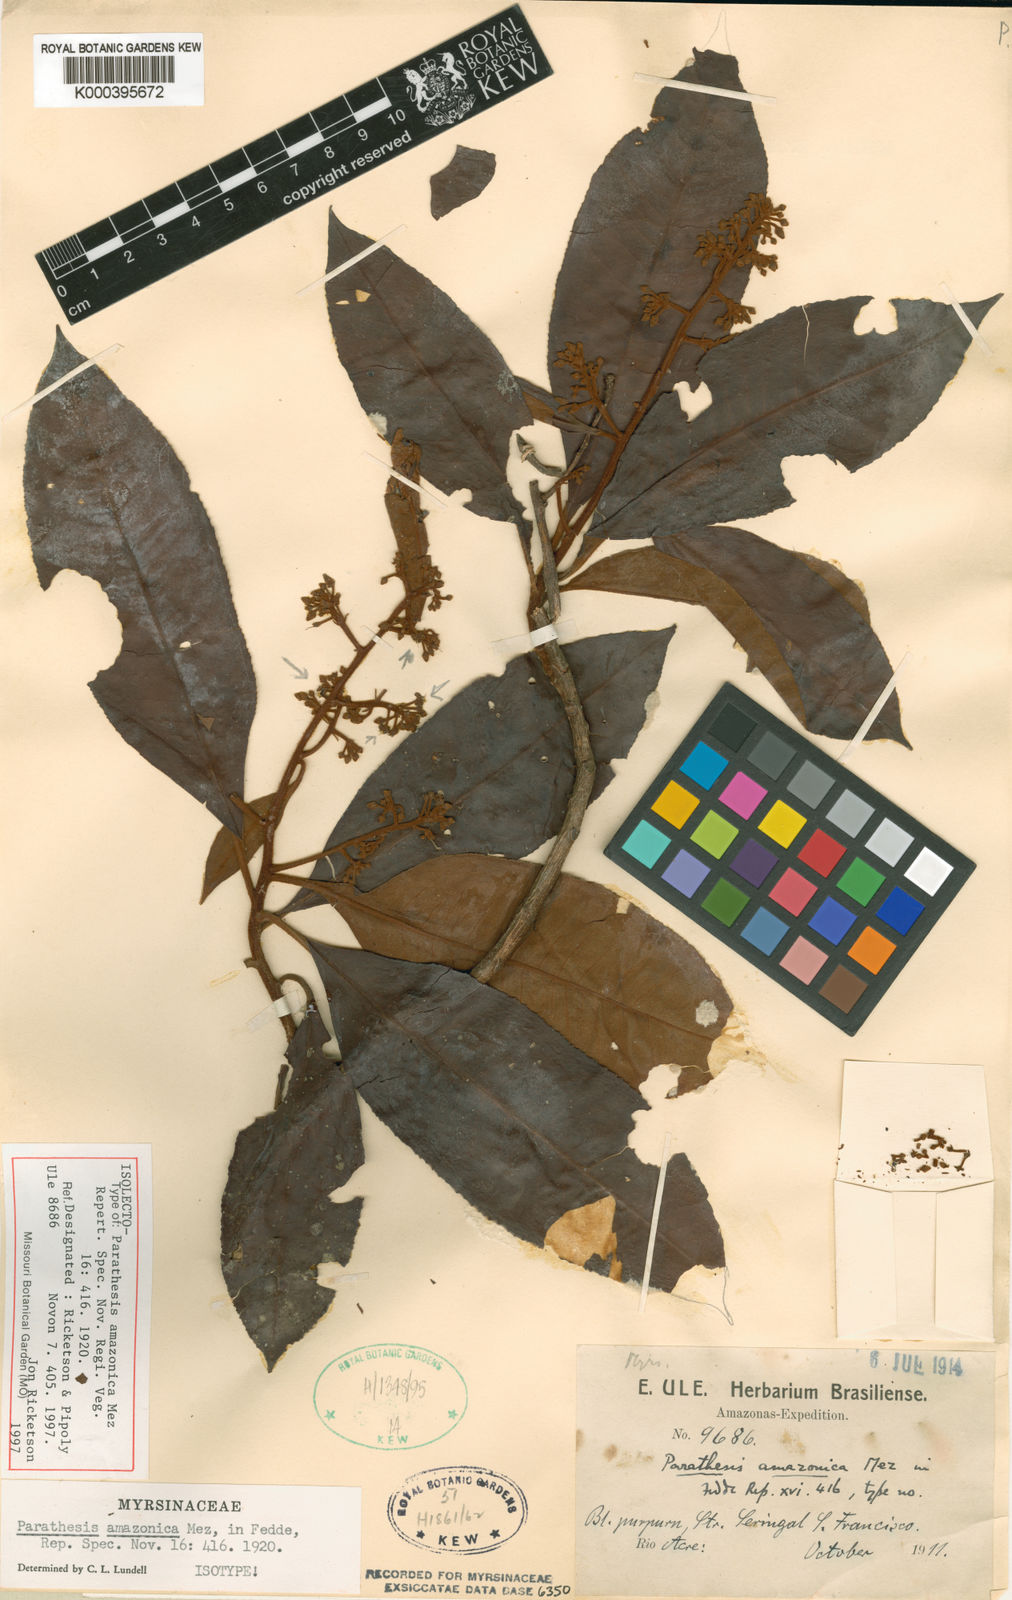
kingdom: Plantae
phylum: Tracheophyta
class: Magnoliopsida
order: Ericales
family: Primulaceae
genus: Parathesis
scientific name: Parathesis amazonica
